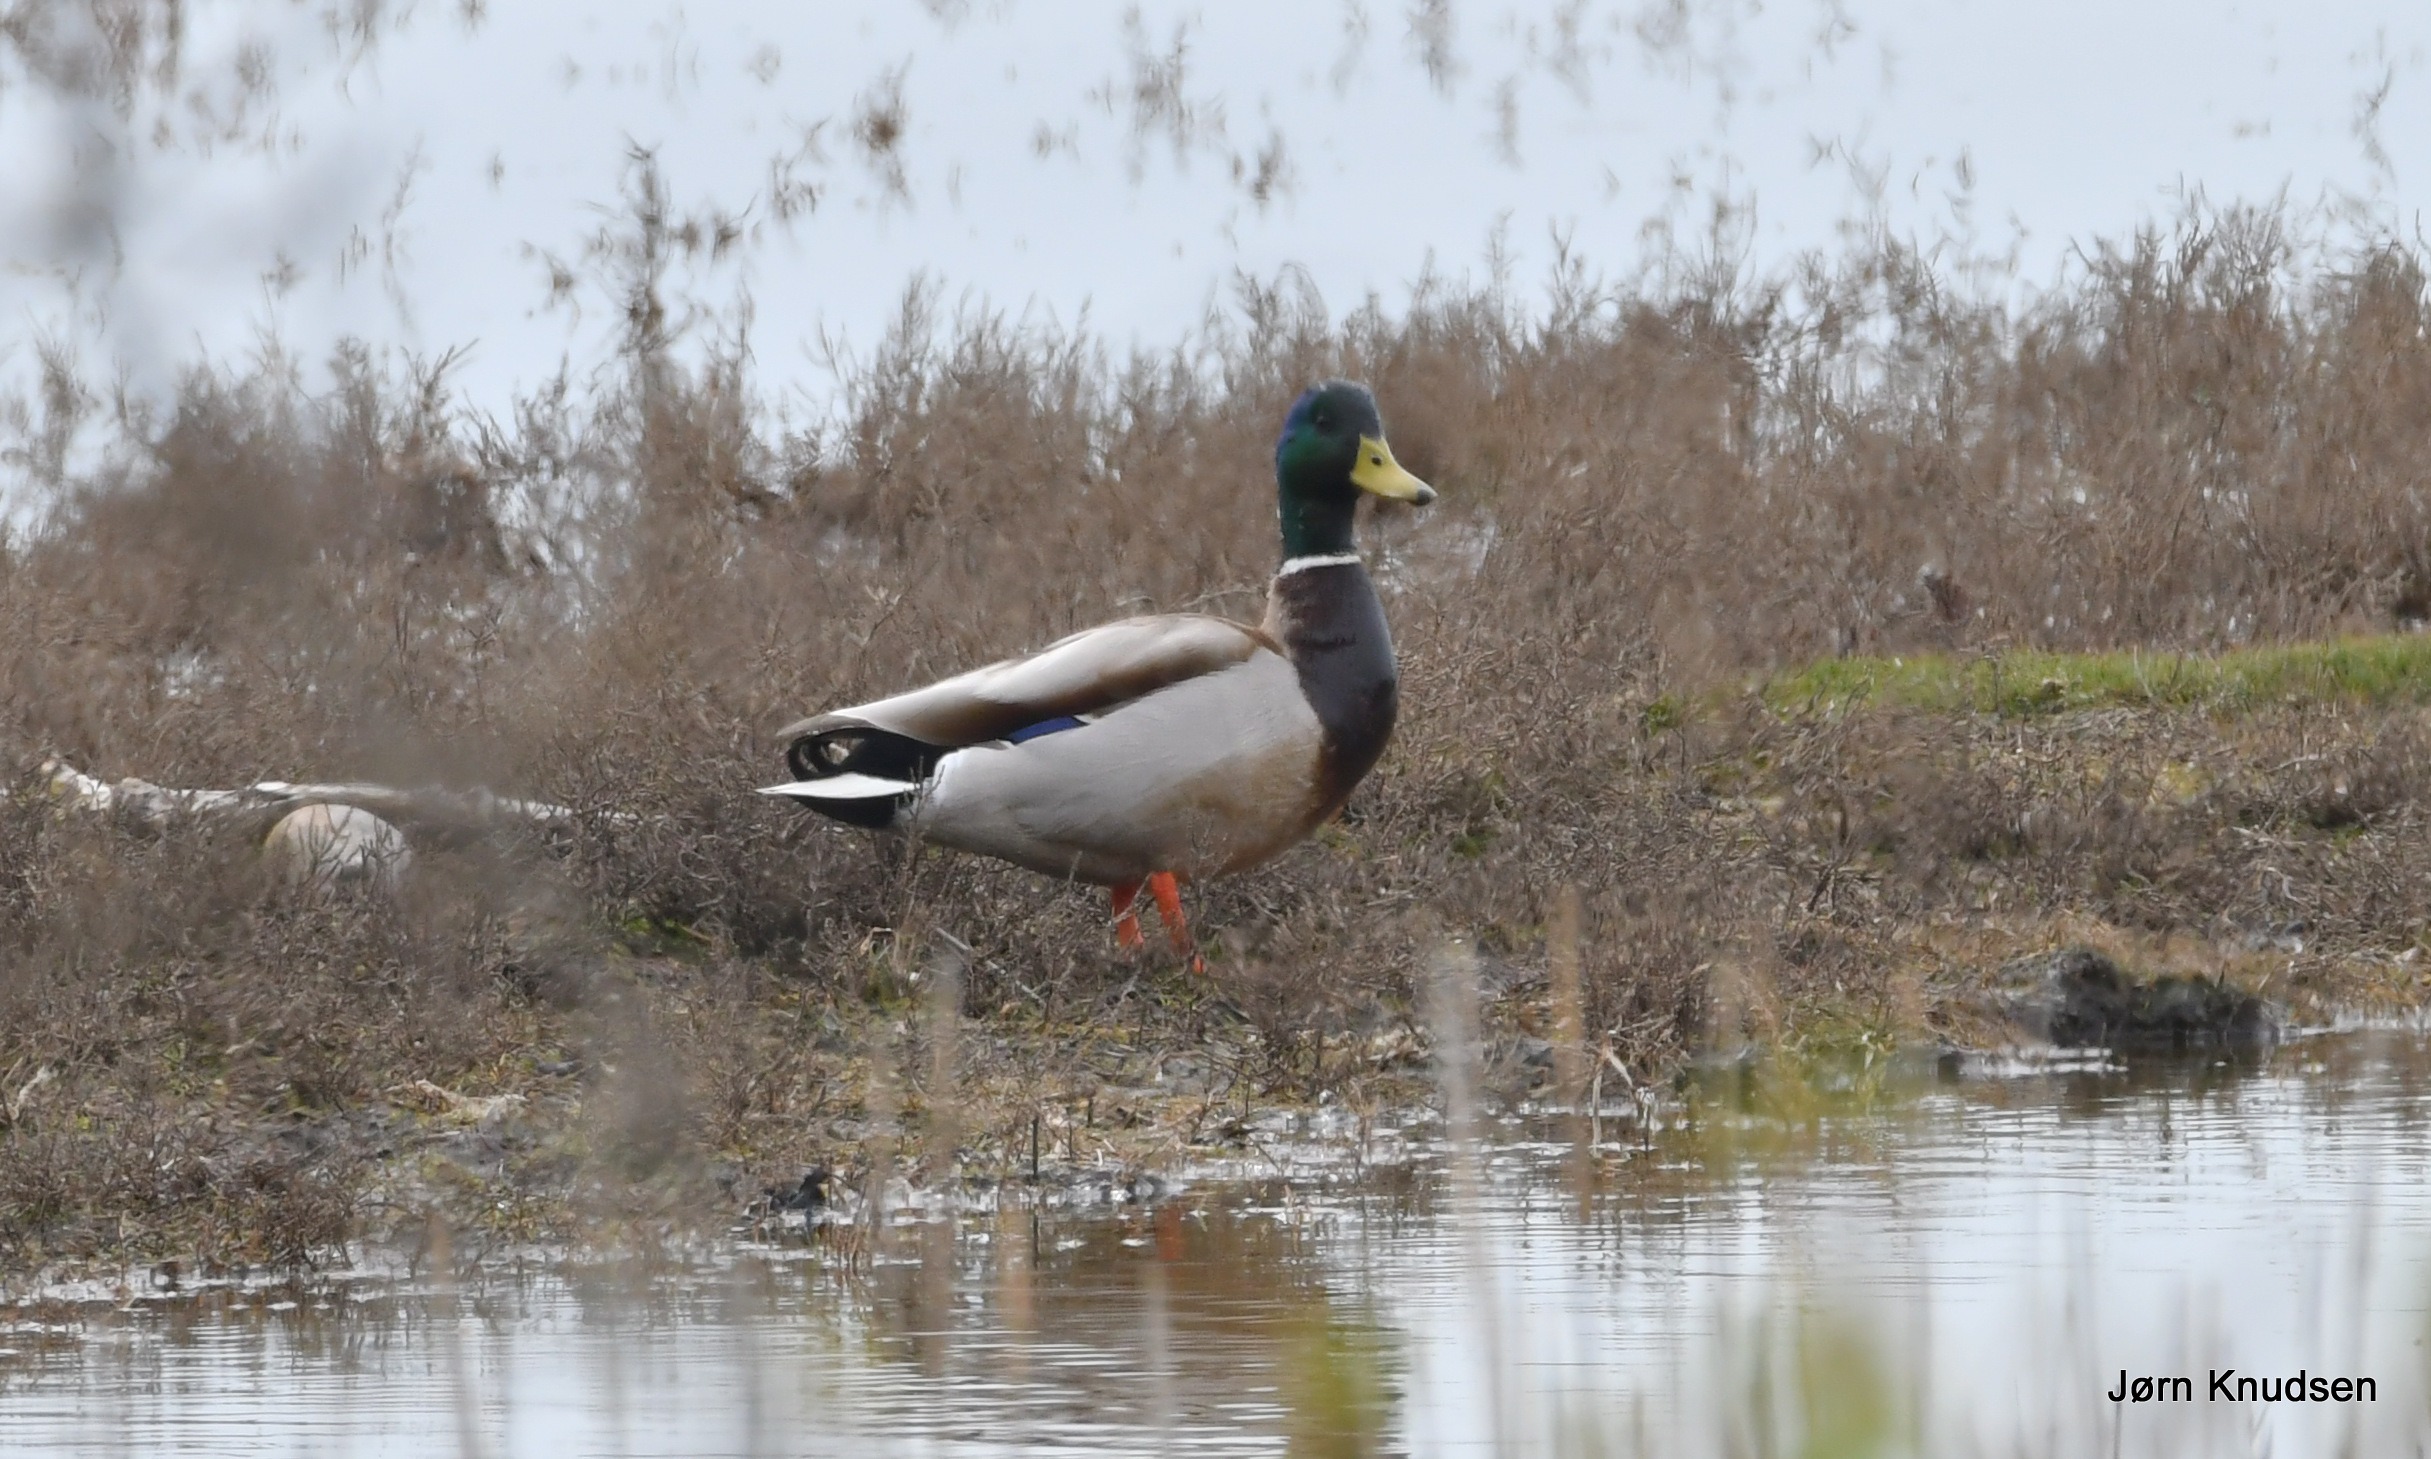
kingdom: Animalia
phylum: Chordata
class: Aves
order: Anseriformes
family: Anatidae
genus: Anas
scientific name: Anas platyrhynchos
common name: Gråand
